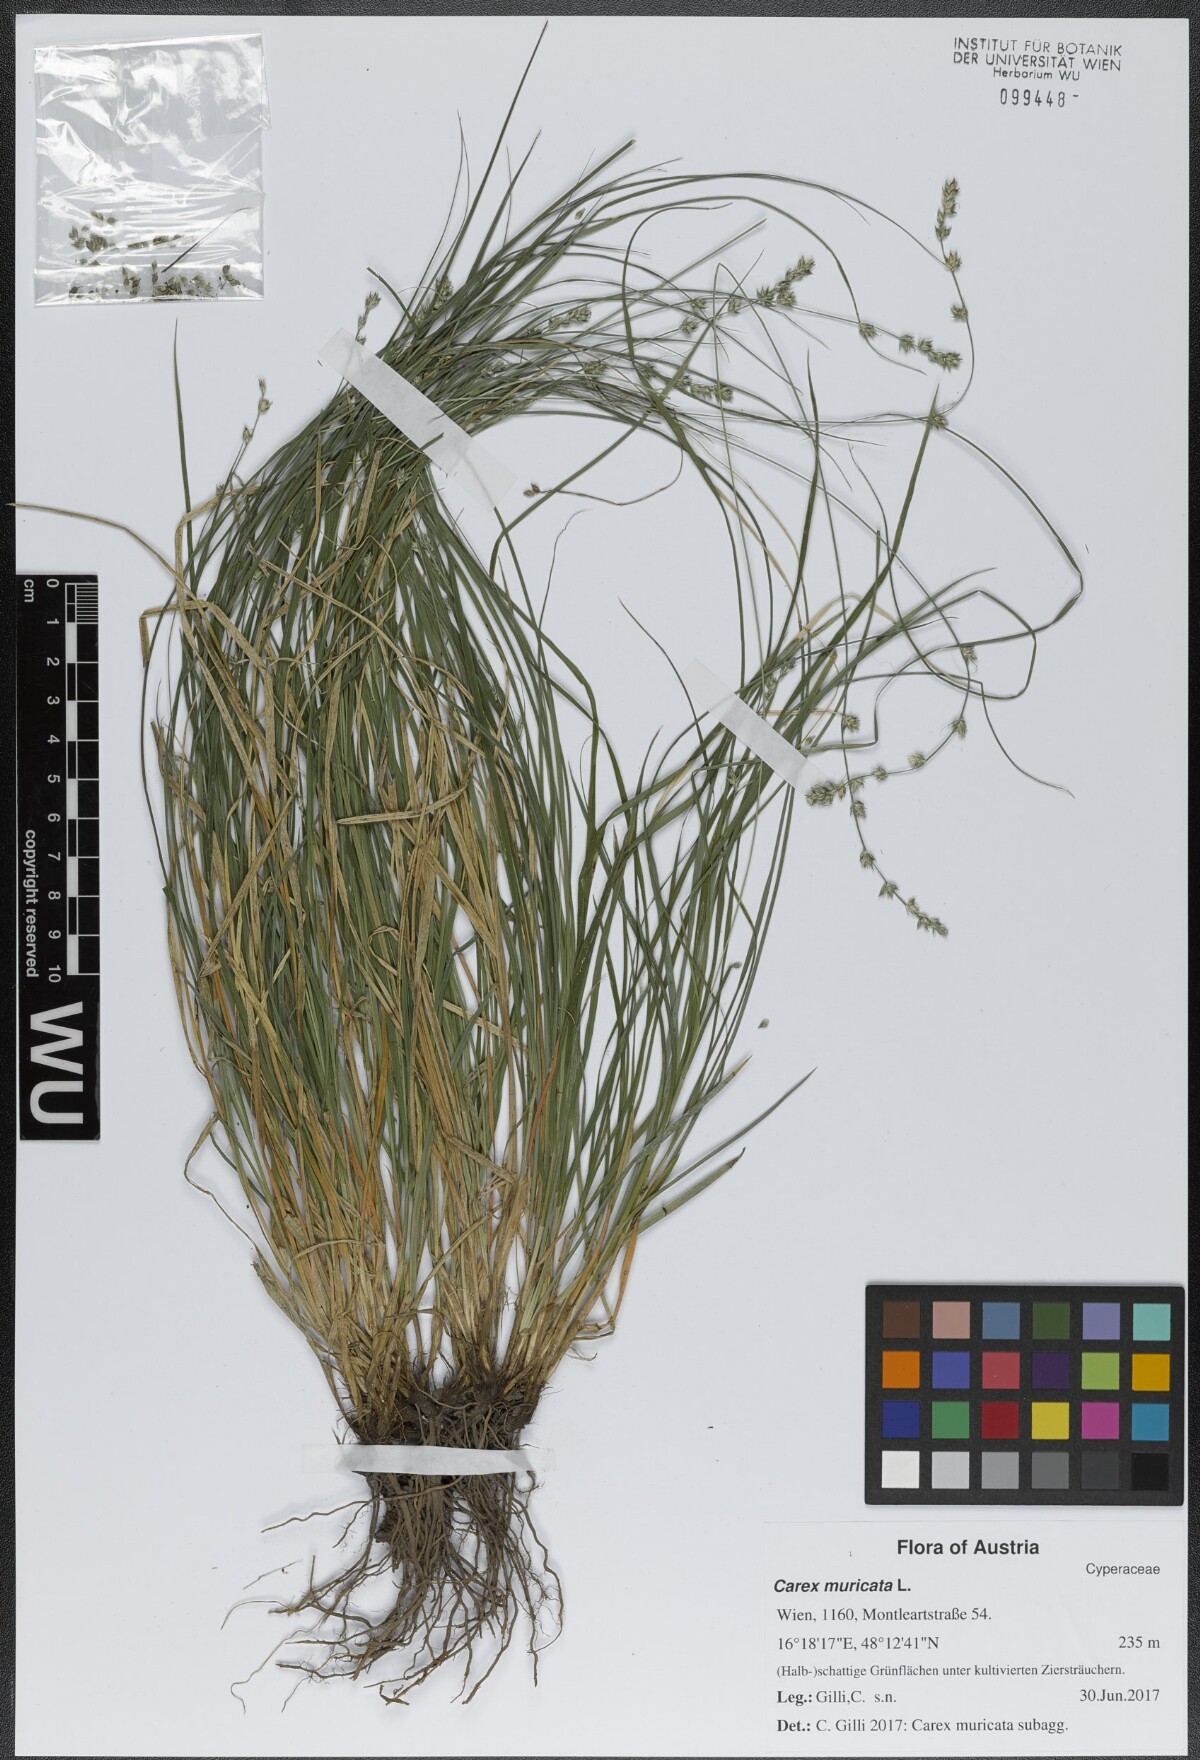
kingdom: Plantae
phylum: Tracheophyta
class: Liliopsida
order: Poales
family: Cyperaceae
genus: Carex
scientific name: Carex muricata
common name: Rough sedge
